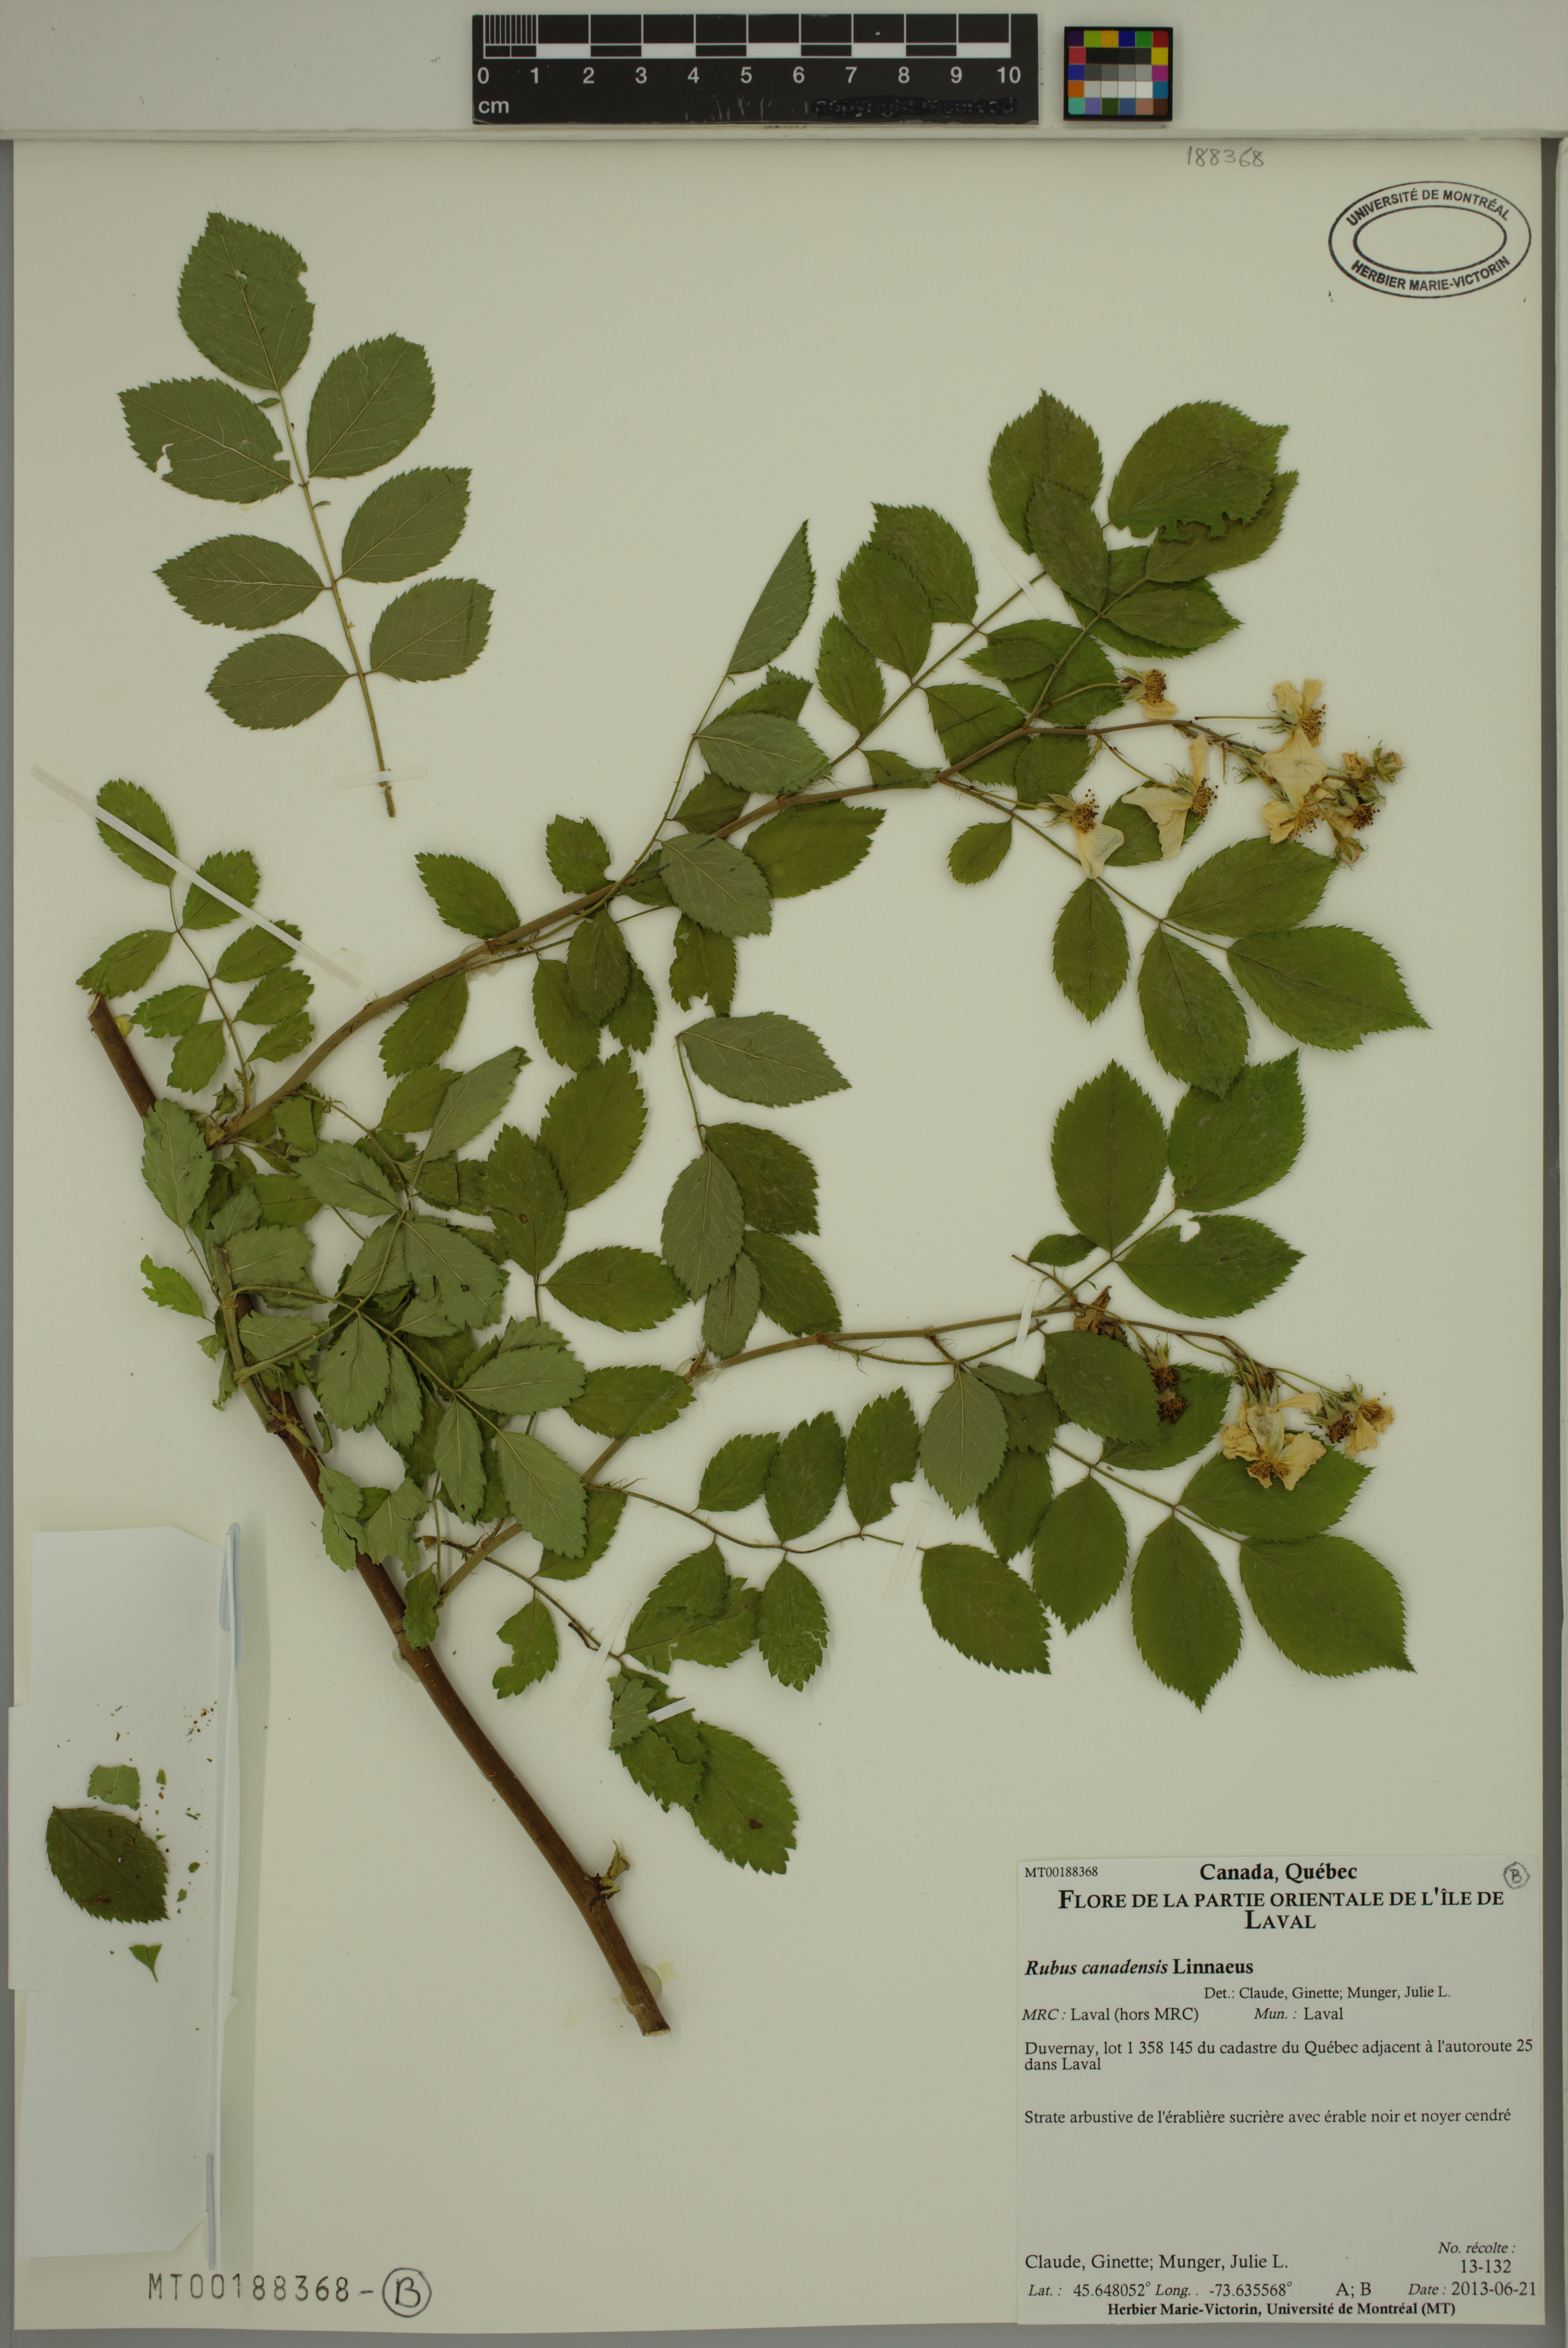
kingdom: Plantae
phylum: Tracheophyta
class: Magnoliopsida
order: Rosales
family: Rosaceae
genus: Rubus
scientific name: Rubus canadensis
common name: Smooth blackberry
